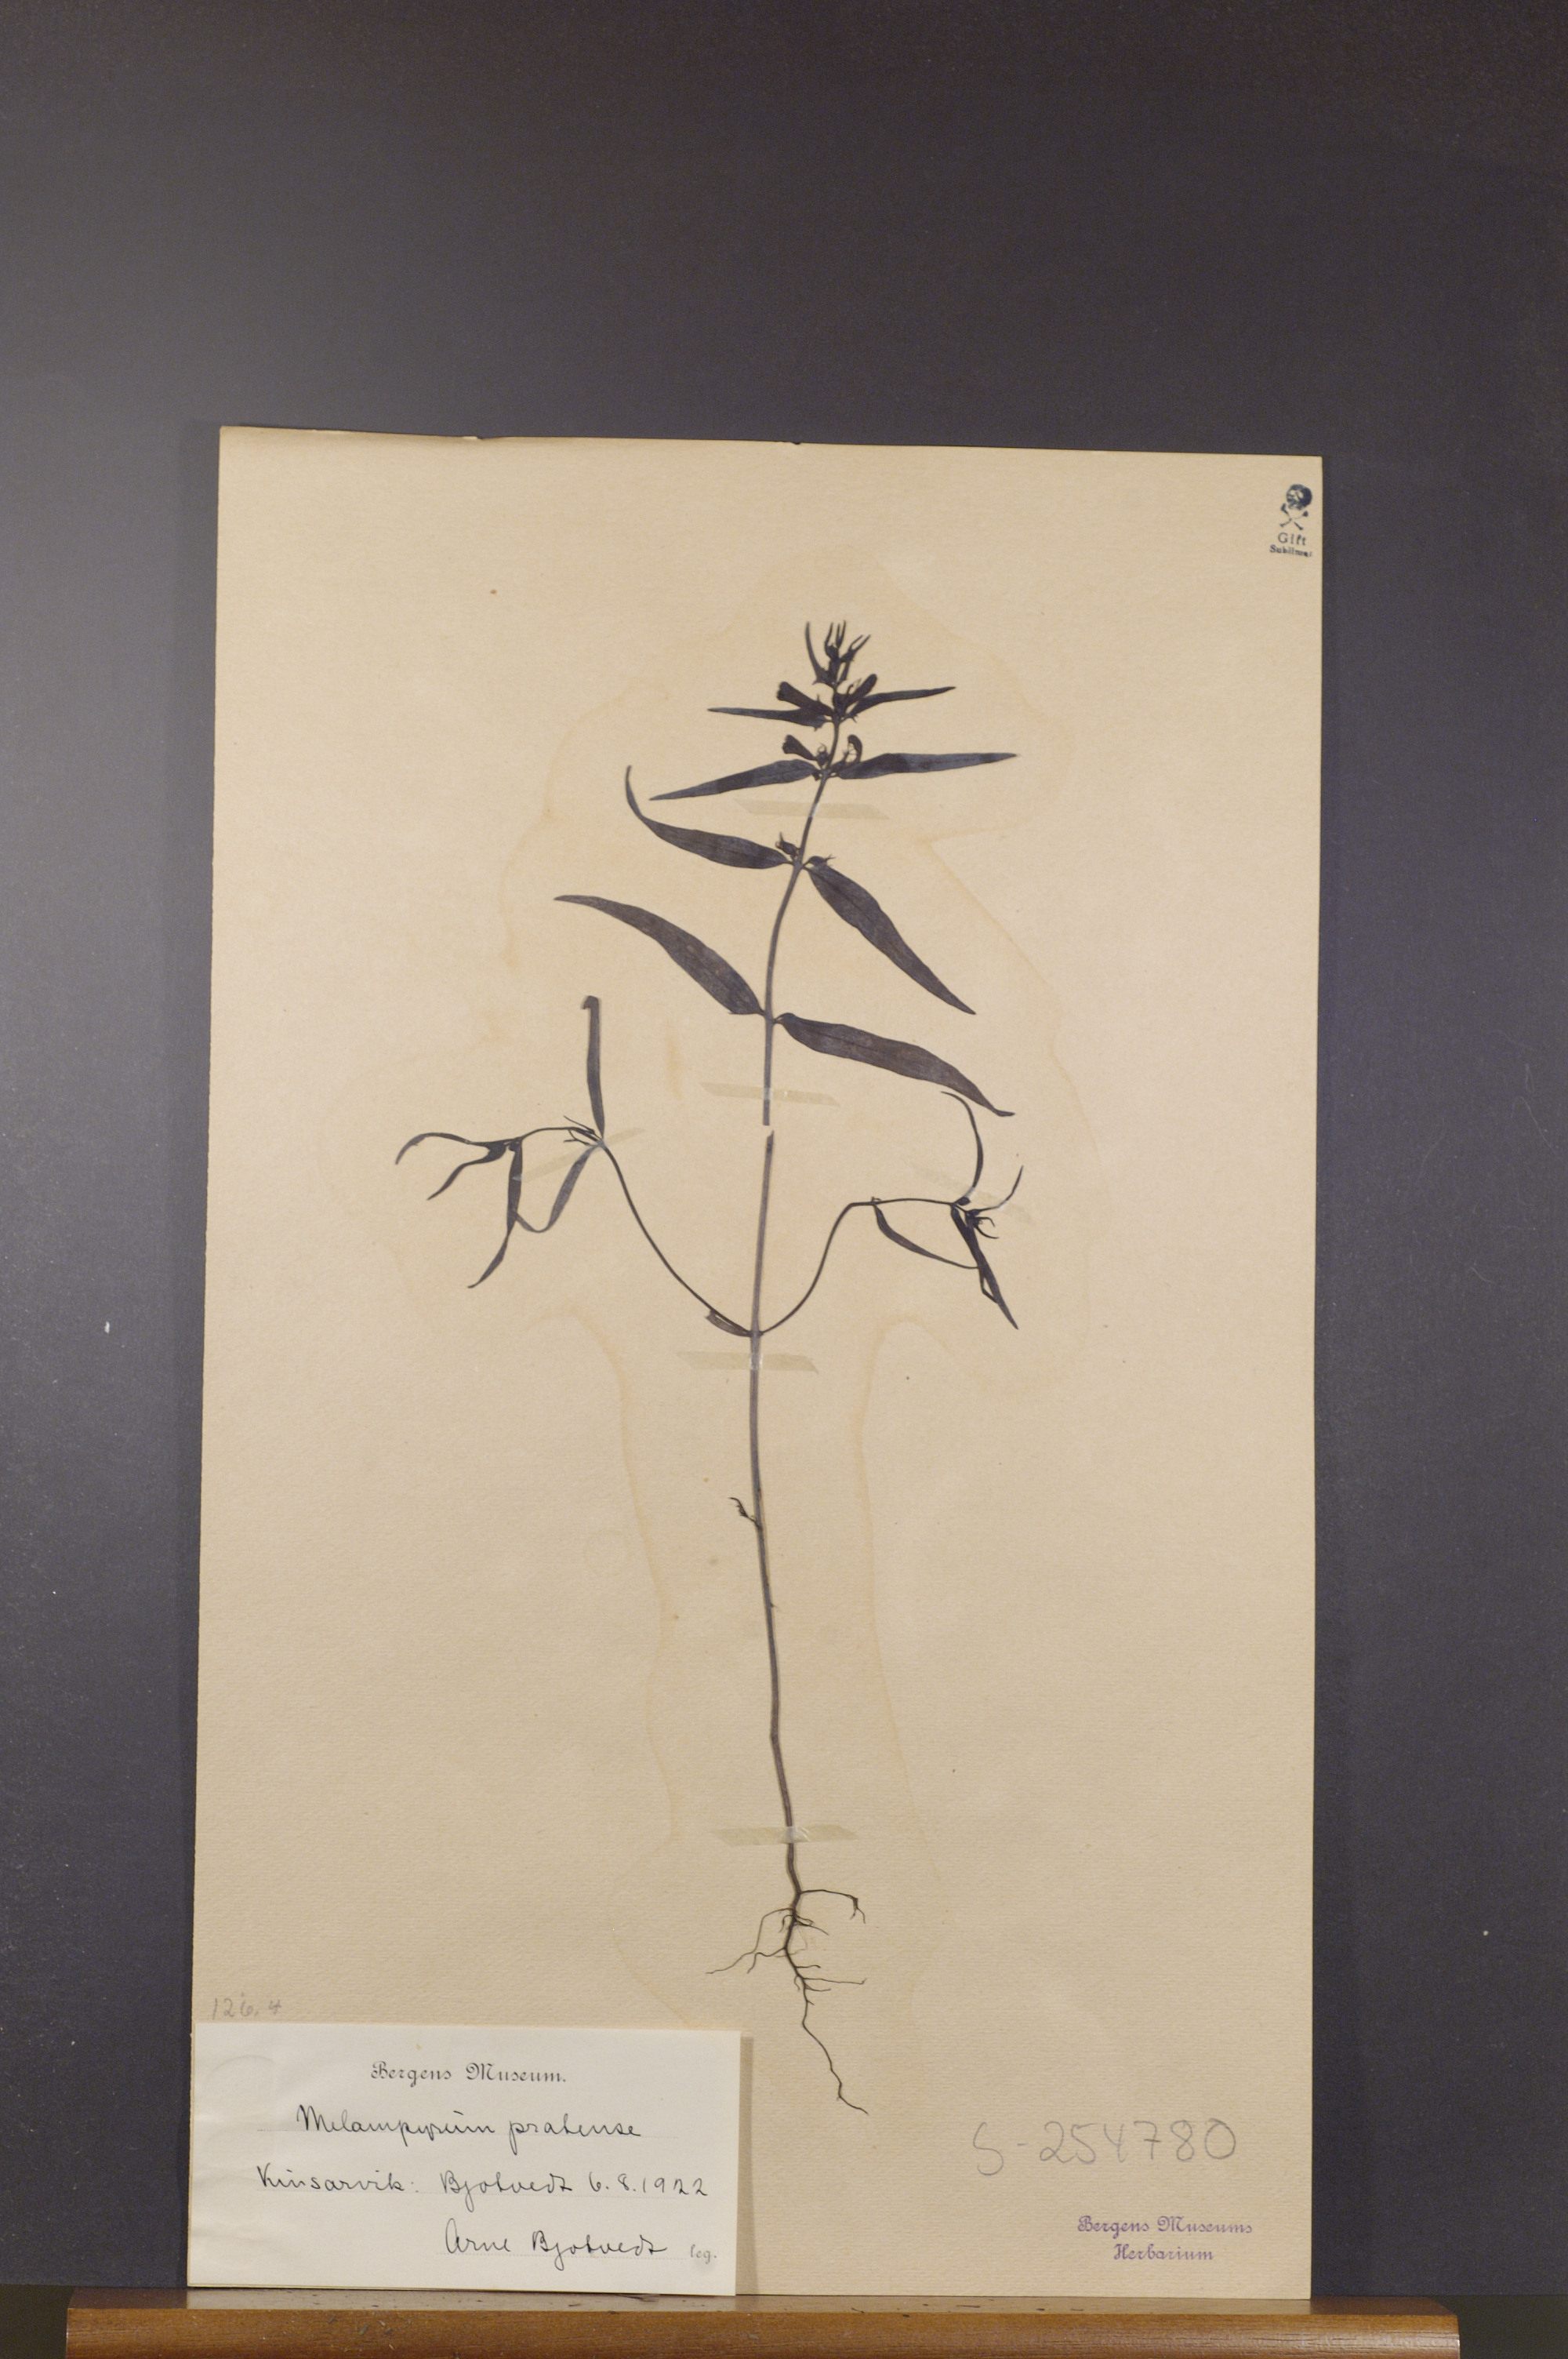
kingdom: Plantae
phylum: Tracheophyta
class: Magnoliopsida
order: Lamiales
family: Orobanchaceae
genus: Melampyrum
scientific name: Melampyrum pratense
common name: Common cow-wheat
